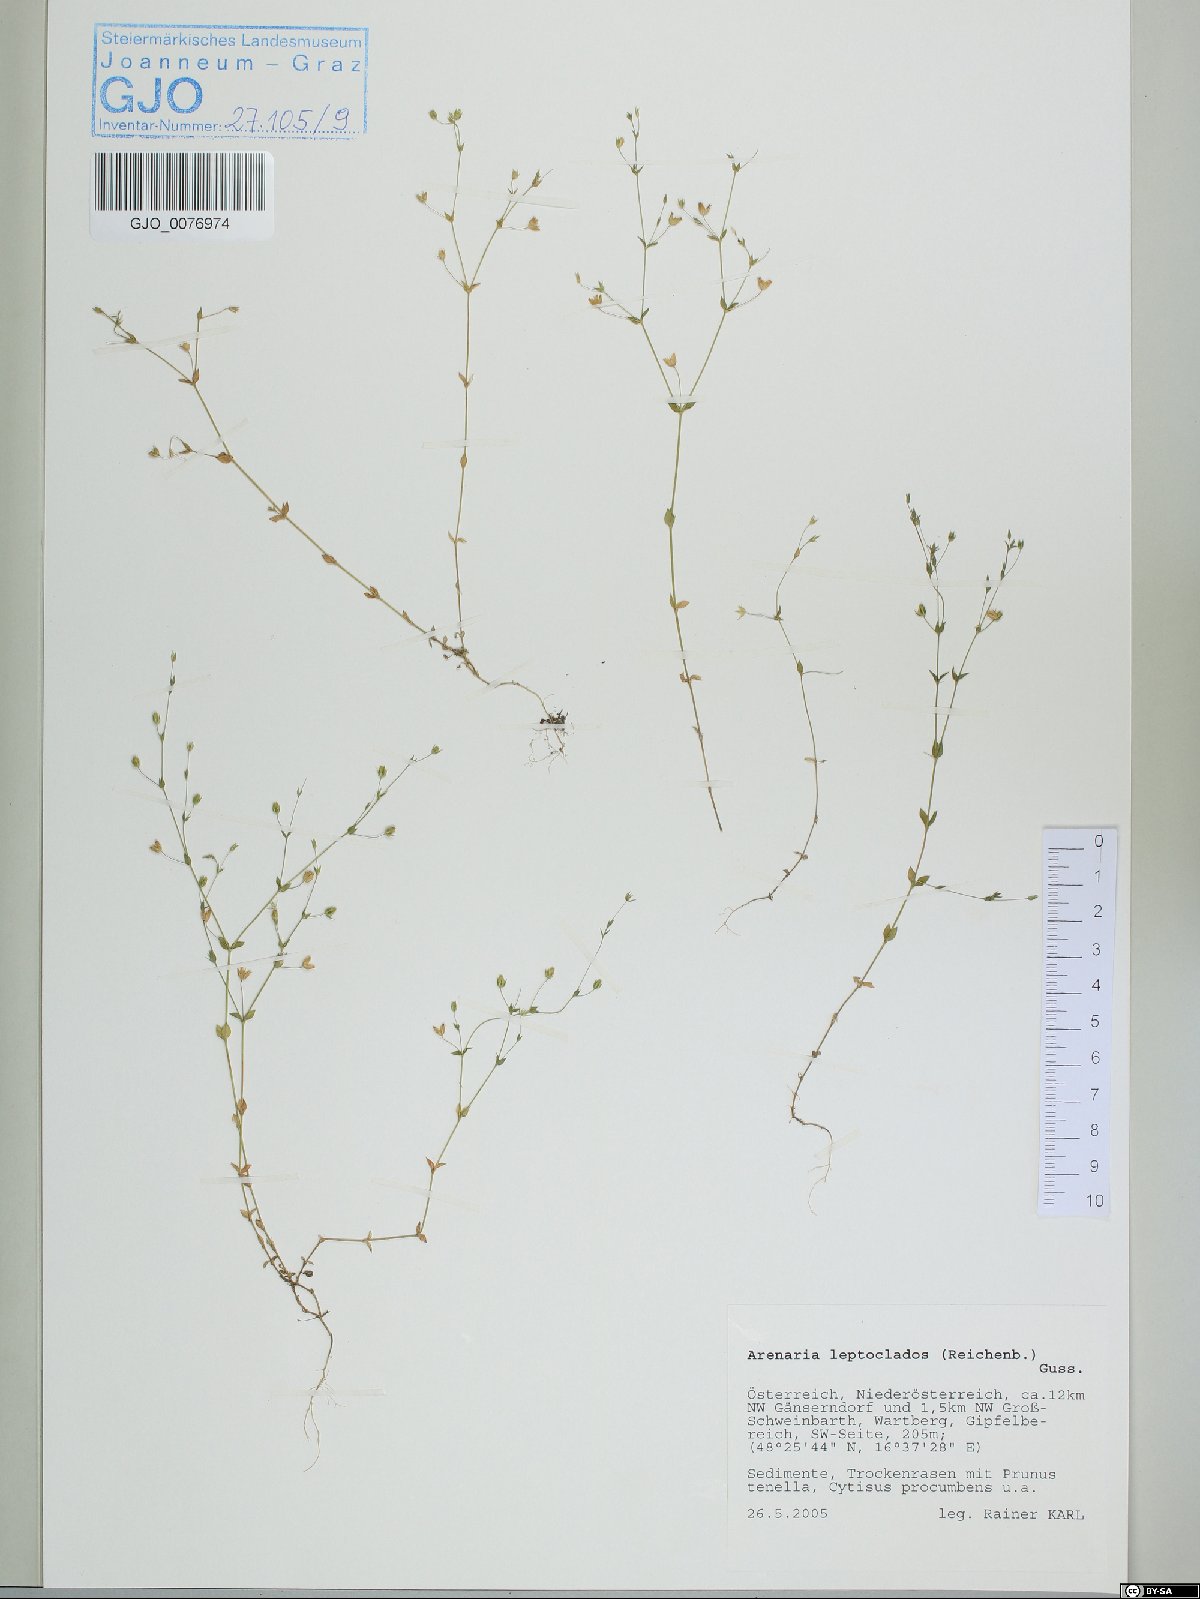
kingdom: Plantae
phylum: Tracheophyta
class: Magnoliopsida
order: Caryophyllales
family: Caryophyllaceae
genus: Arenaria
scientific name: Arenaria leptoclados
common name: Thyme-leaved sandwort
